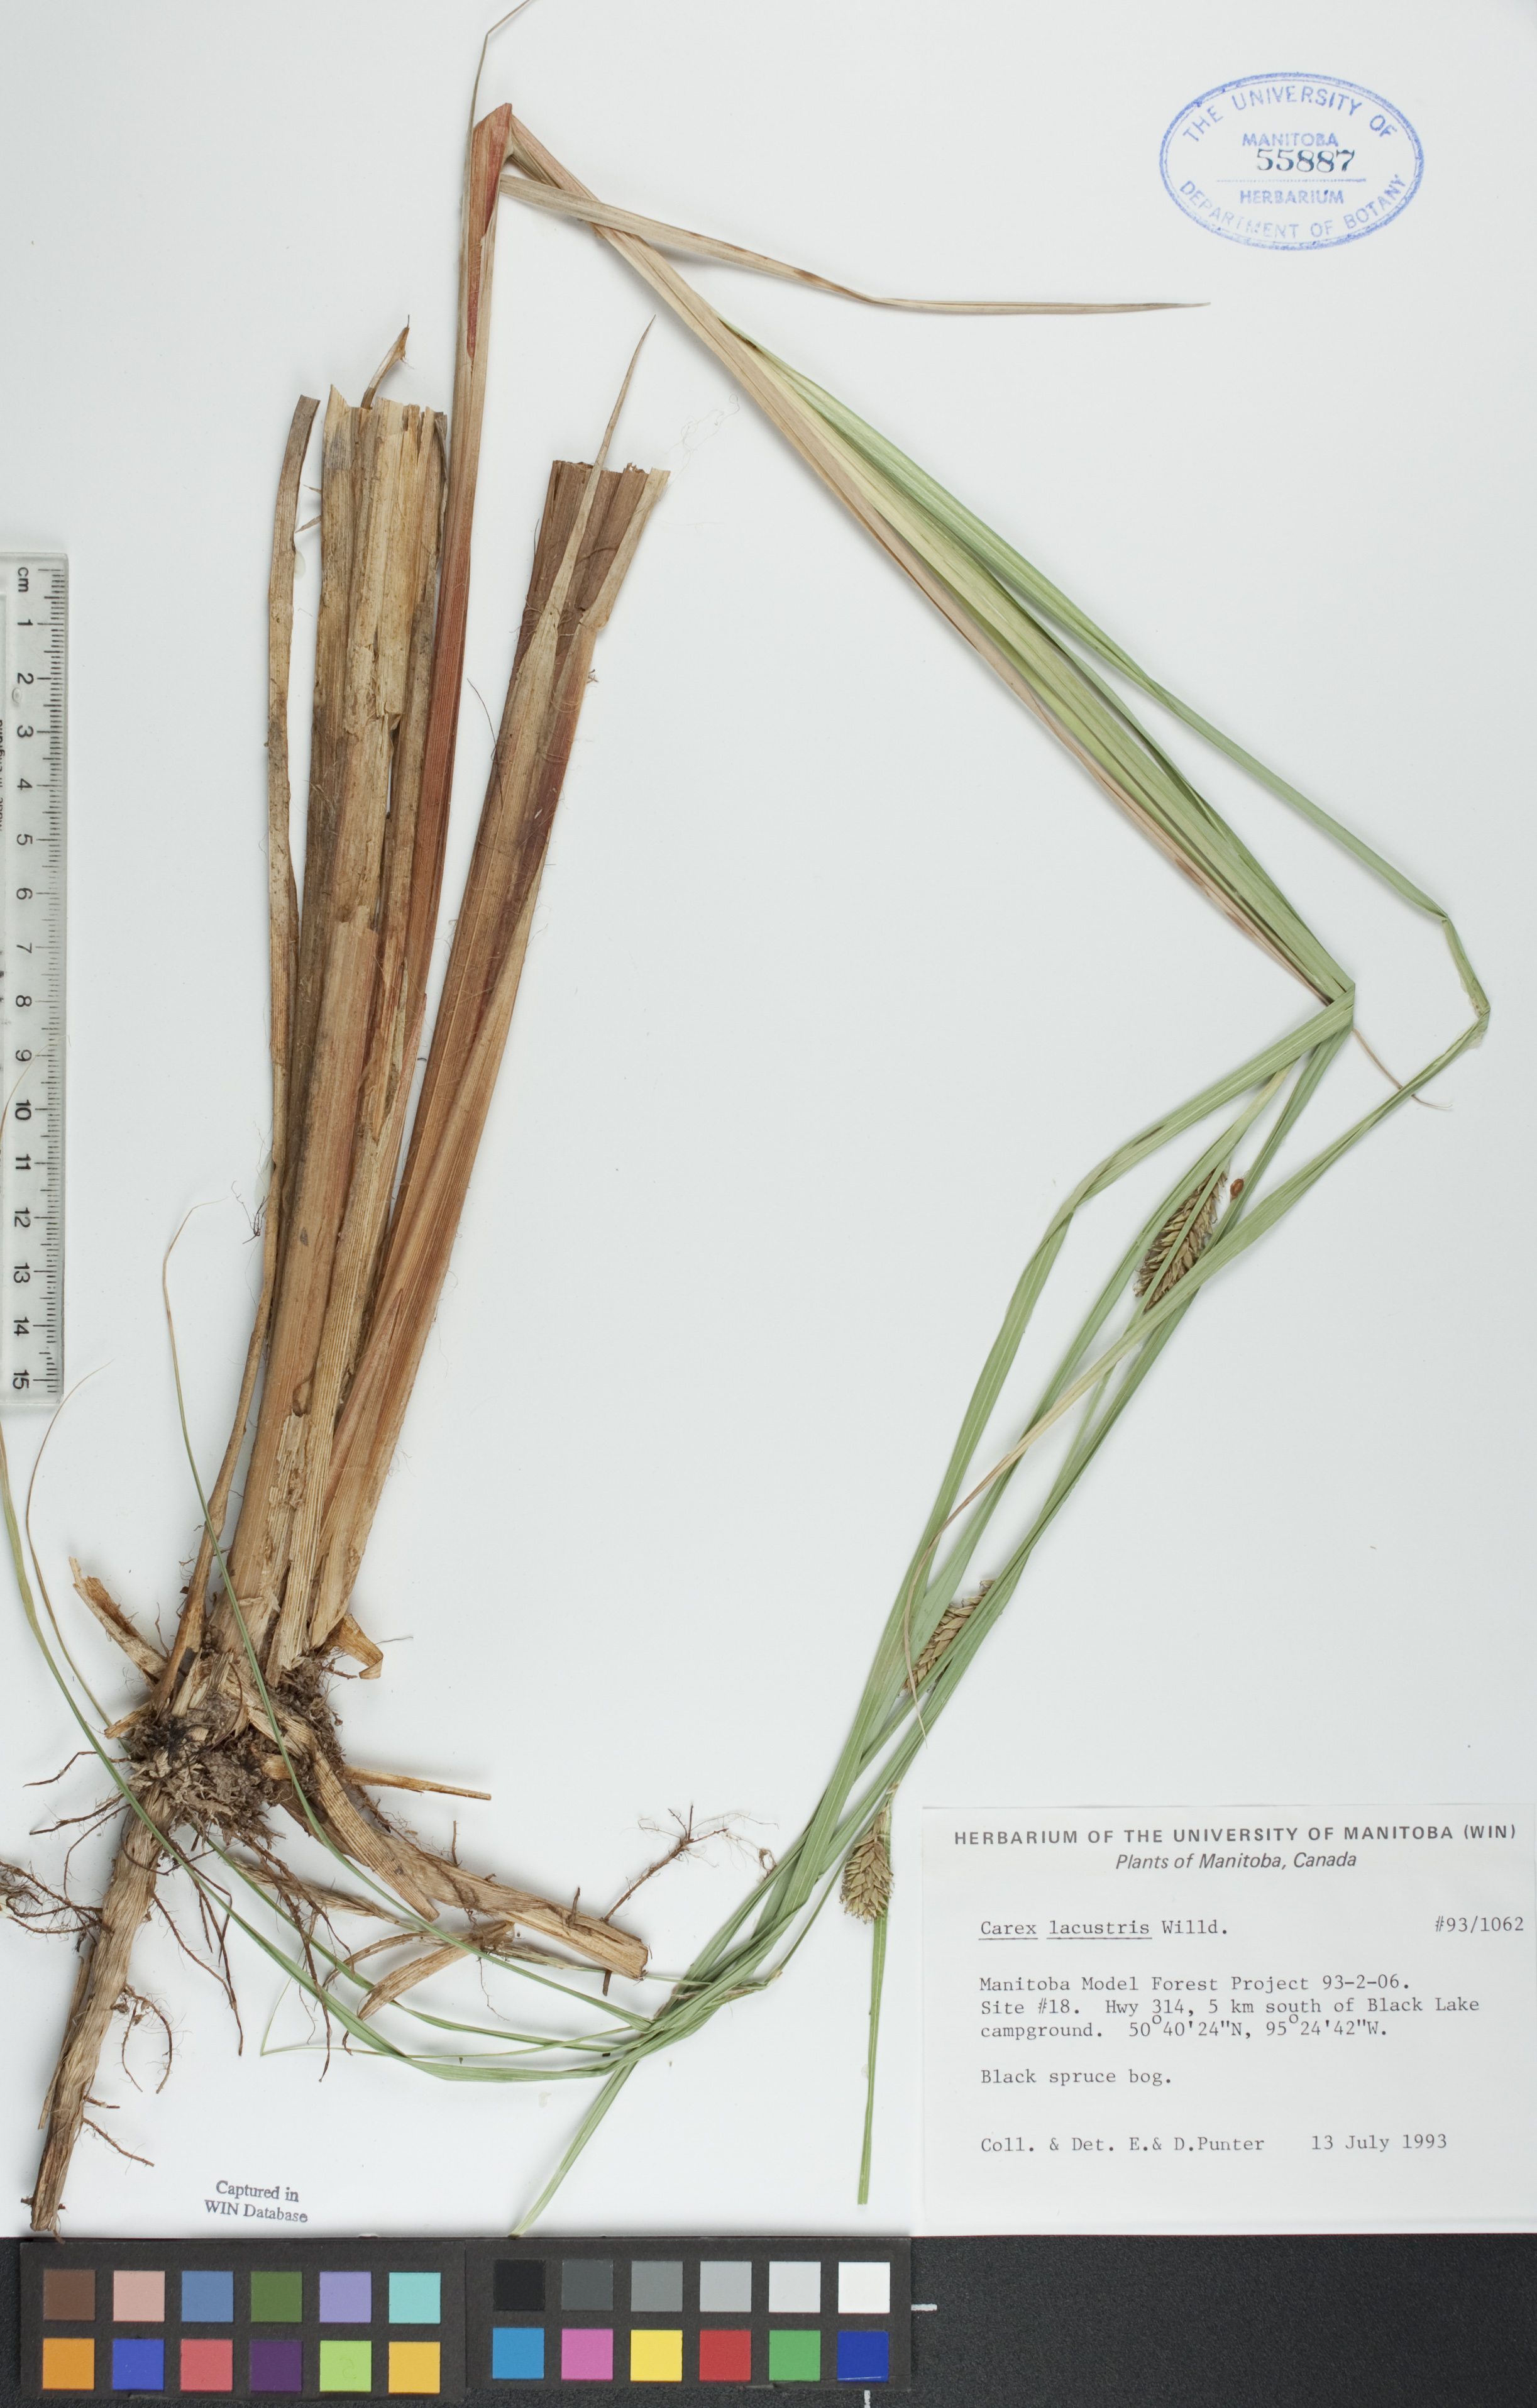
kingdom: Plantae
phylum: Tracheophyta
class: Liliopsida
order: Poales
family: Cyperaceae
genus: Carex
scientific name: Carex lacustris
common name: Common lake sedge
